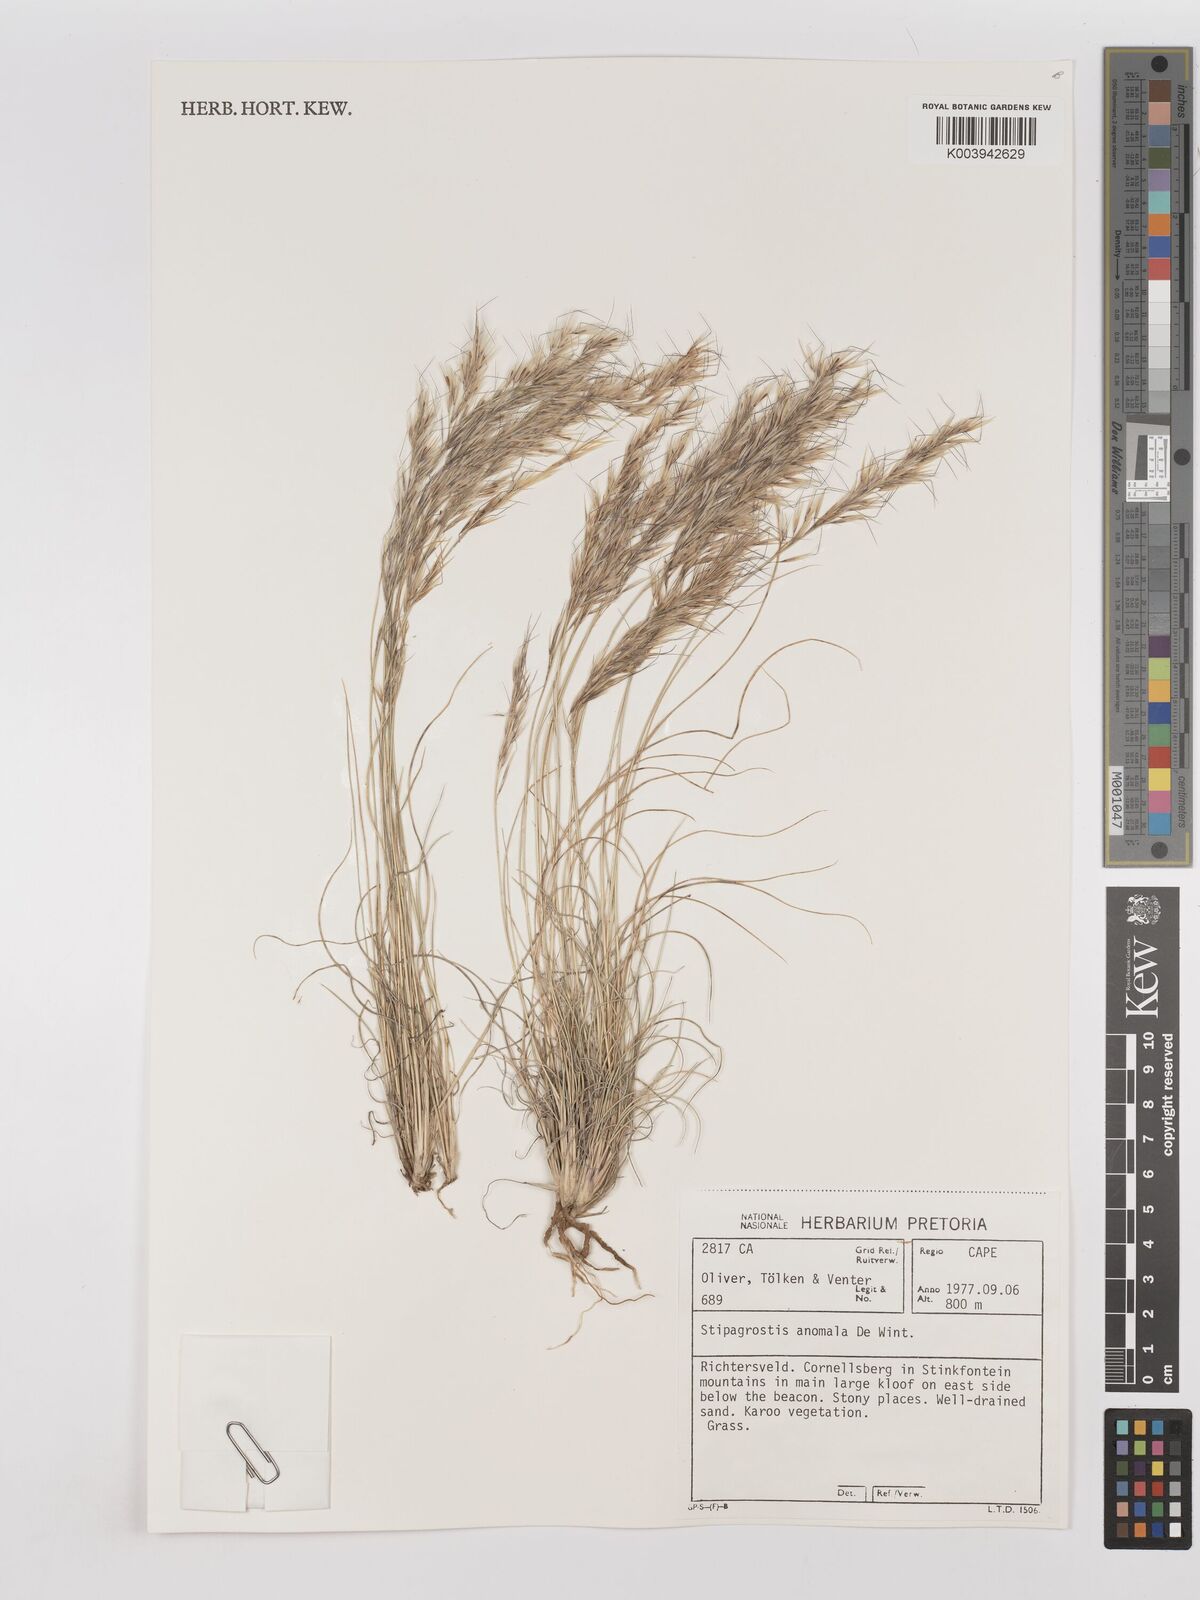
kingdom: Plantae
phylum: Tracheophyta
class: Liliopsida
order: Poales
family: Poaceae
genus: Stipagrostis
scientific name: Stipagrostis anomala
